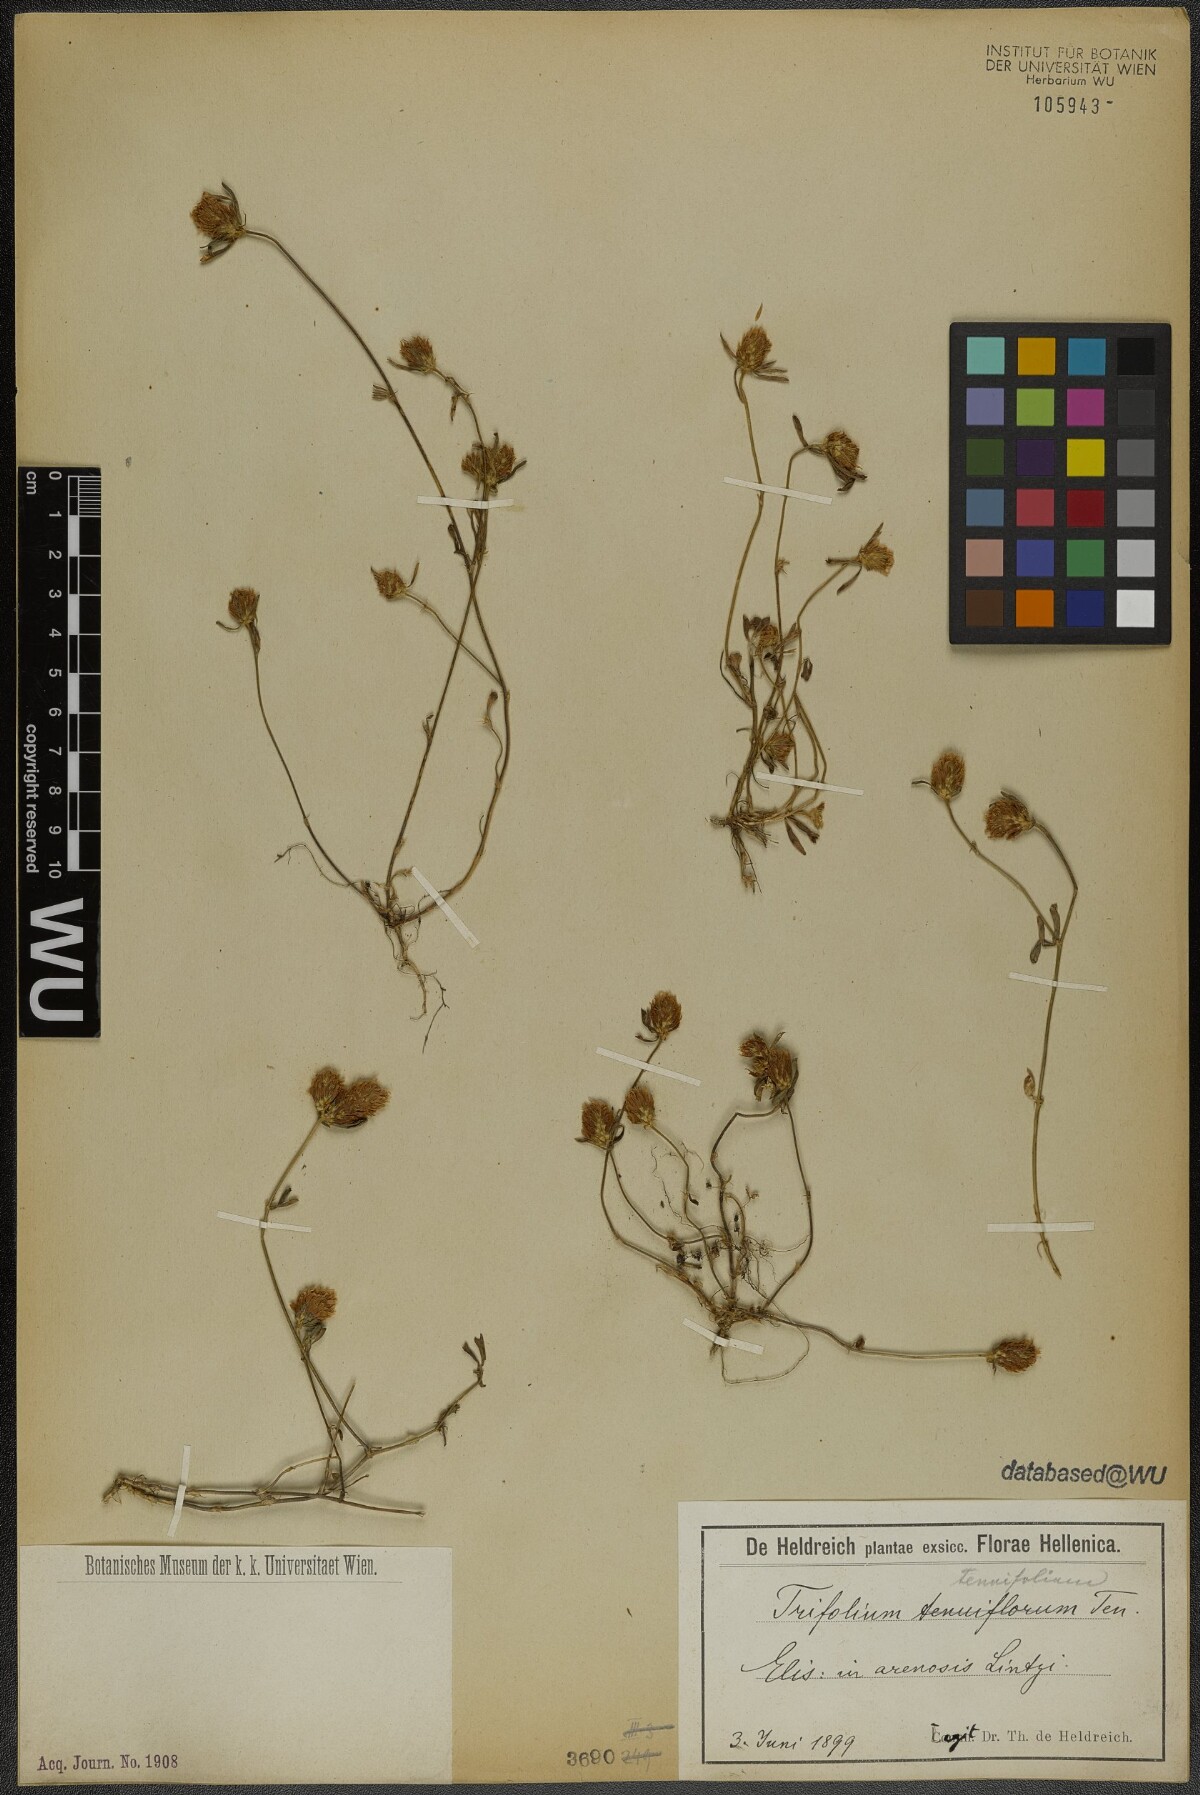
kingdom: Plantae
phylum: Tracheophyta
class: Magnoliopsida
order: Fabales
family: Fabaceae
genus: Trifolium
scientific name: Trifolium tenuifolium
